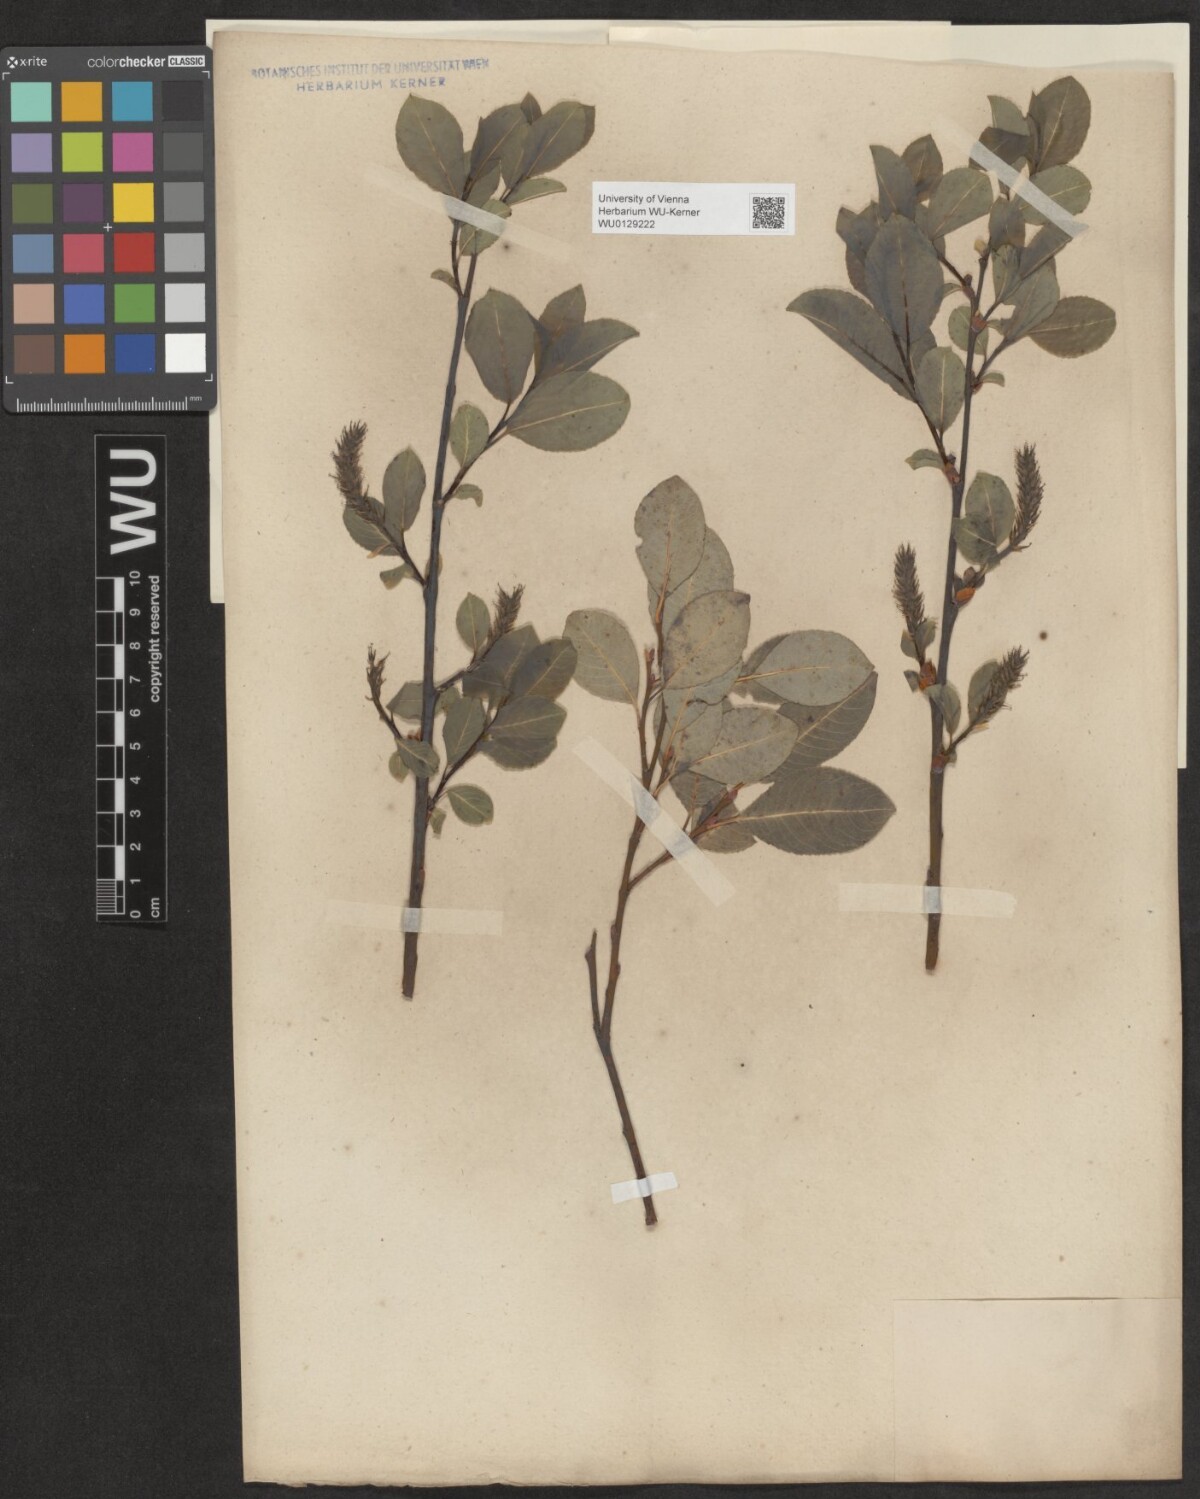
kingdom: Plantae
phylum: Tracheophyta
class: Magnoliopsida
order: Malpighiales
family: Salicaceae
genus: Salix
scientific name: Salix glabra
